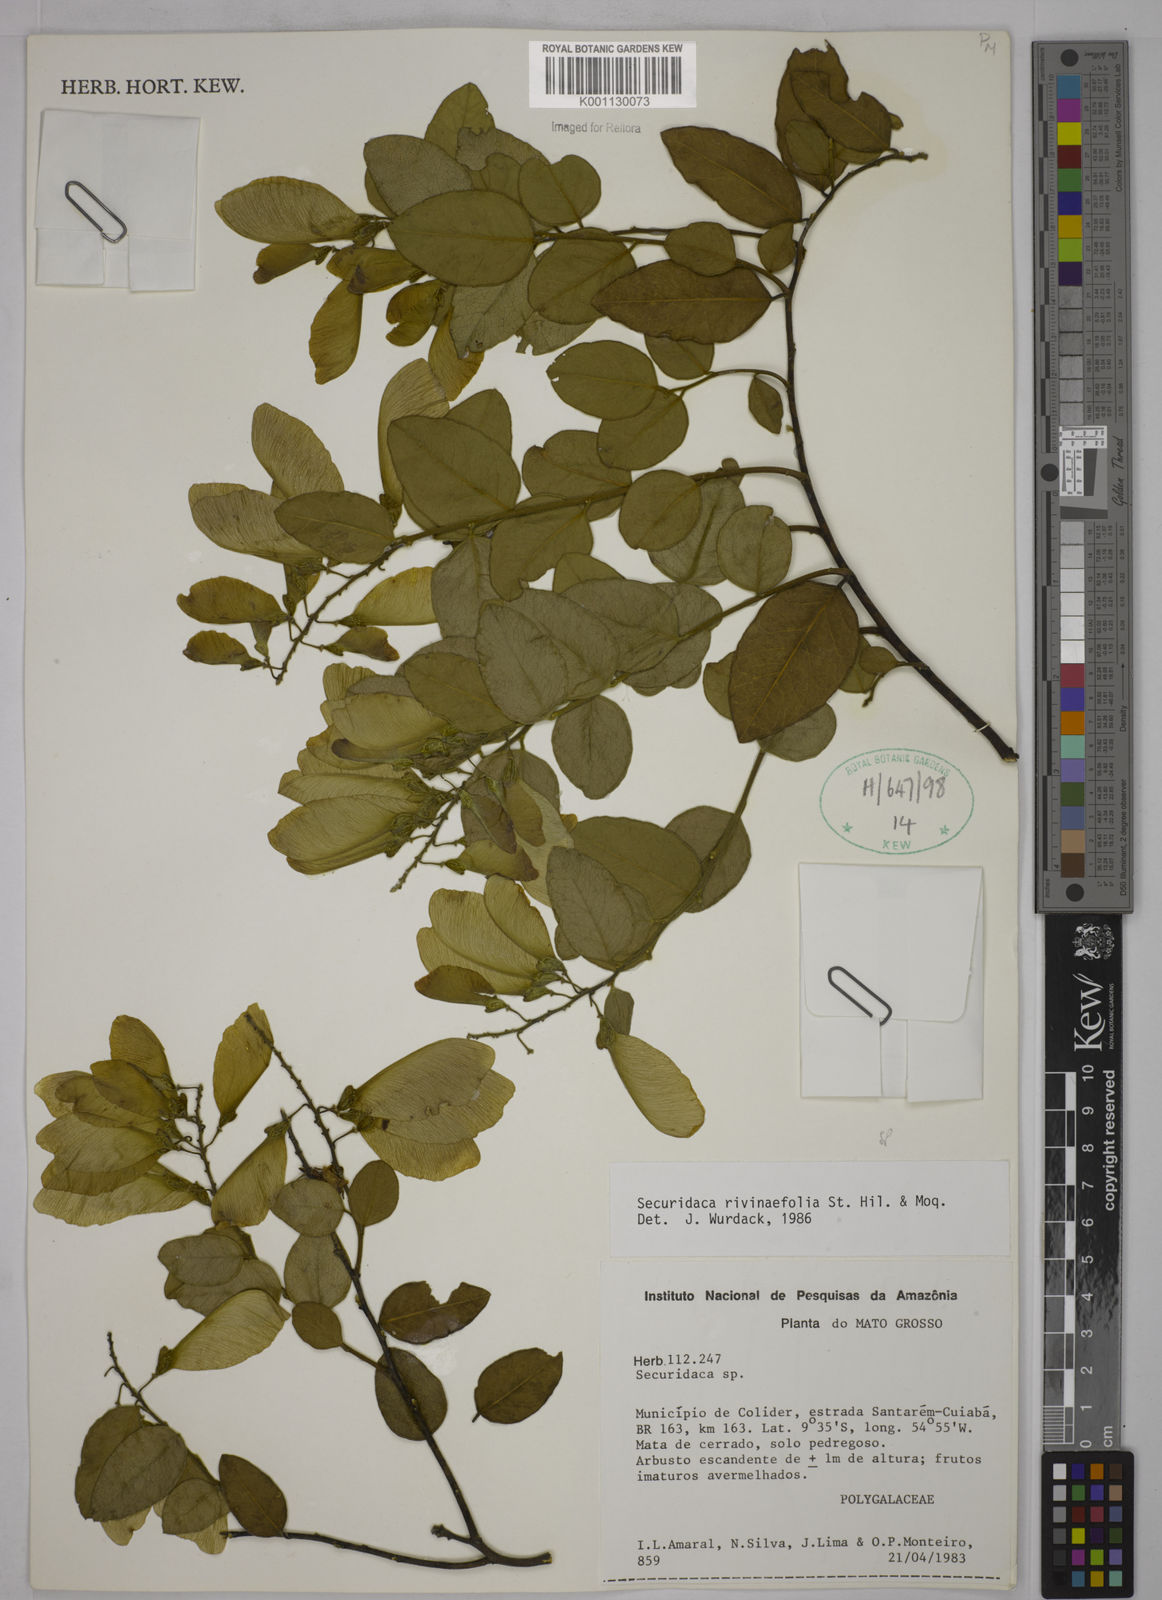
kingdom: Plantae
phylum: Tracheophyta
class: Magnoliopsida
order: Fabales
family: Polygalaceae
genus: Securidaca
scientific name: Securidaca rivinifolia
